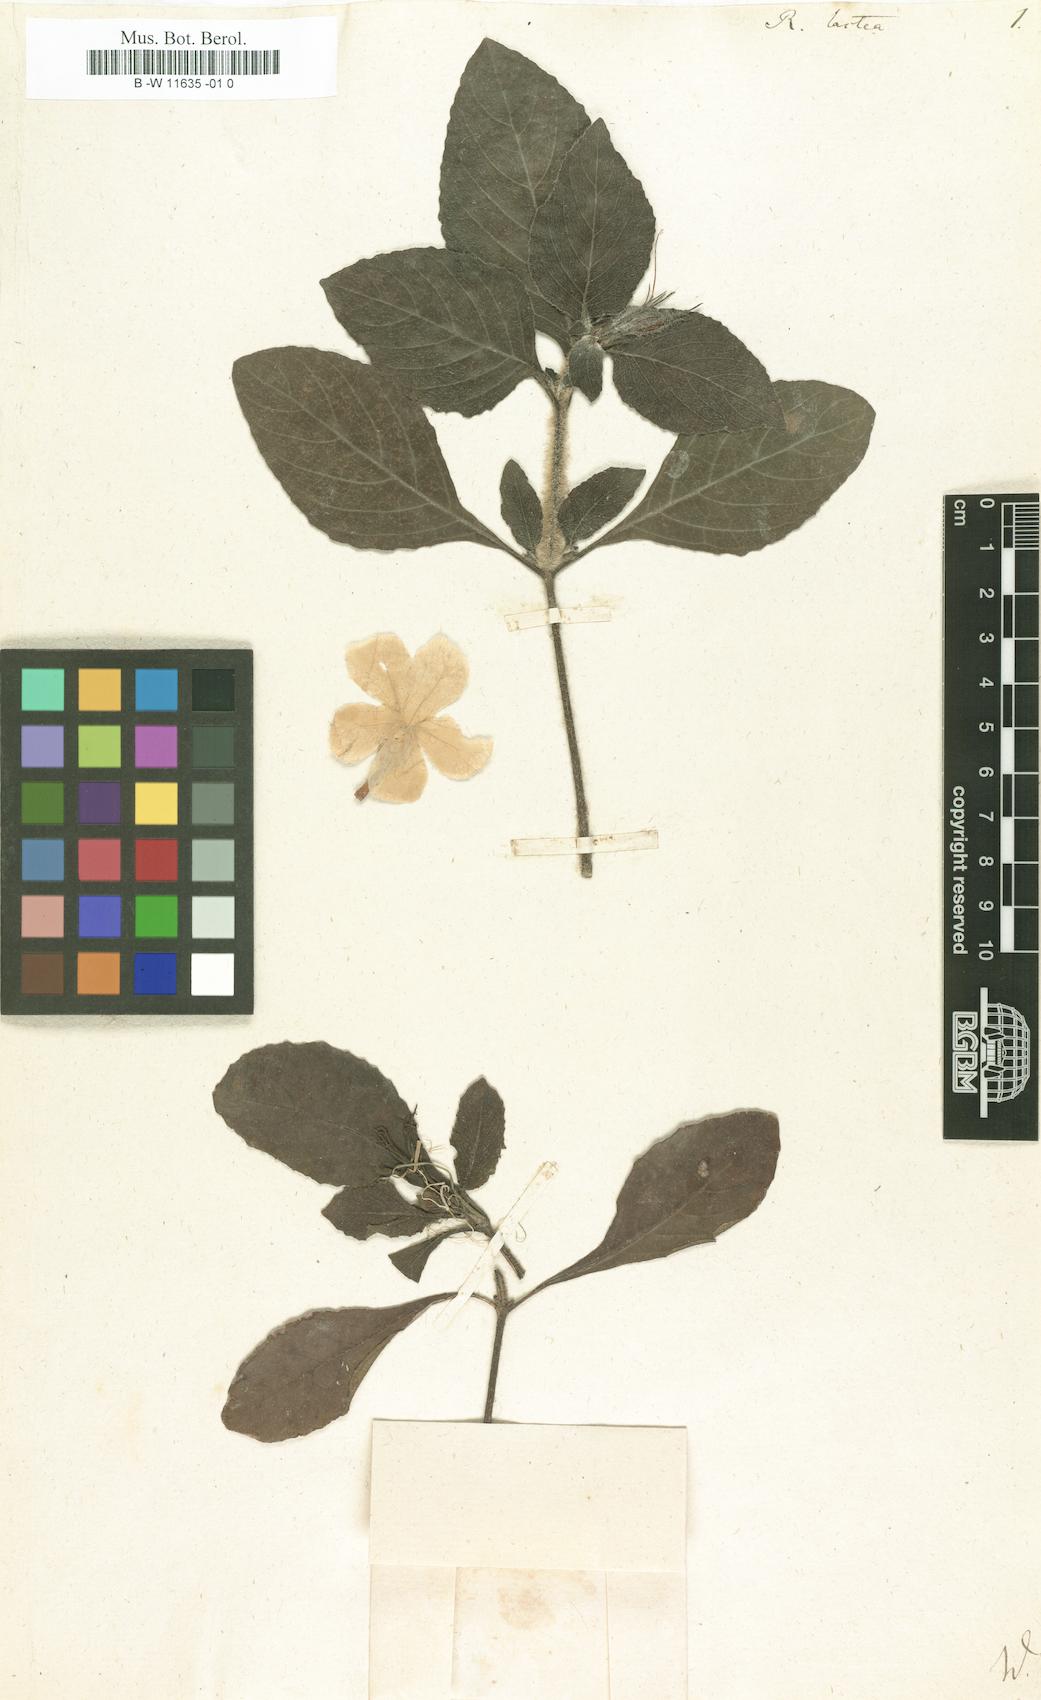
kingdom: Plantae
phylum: Tracheophyta
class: Magnoliopsida
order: Lamiales
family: Acanthaceae
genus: Ruellia
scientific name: Ruellia lactea
